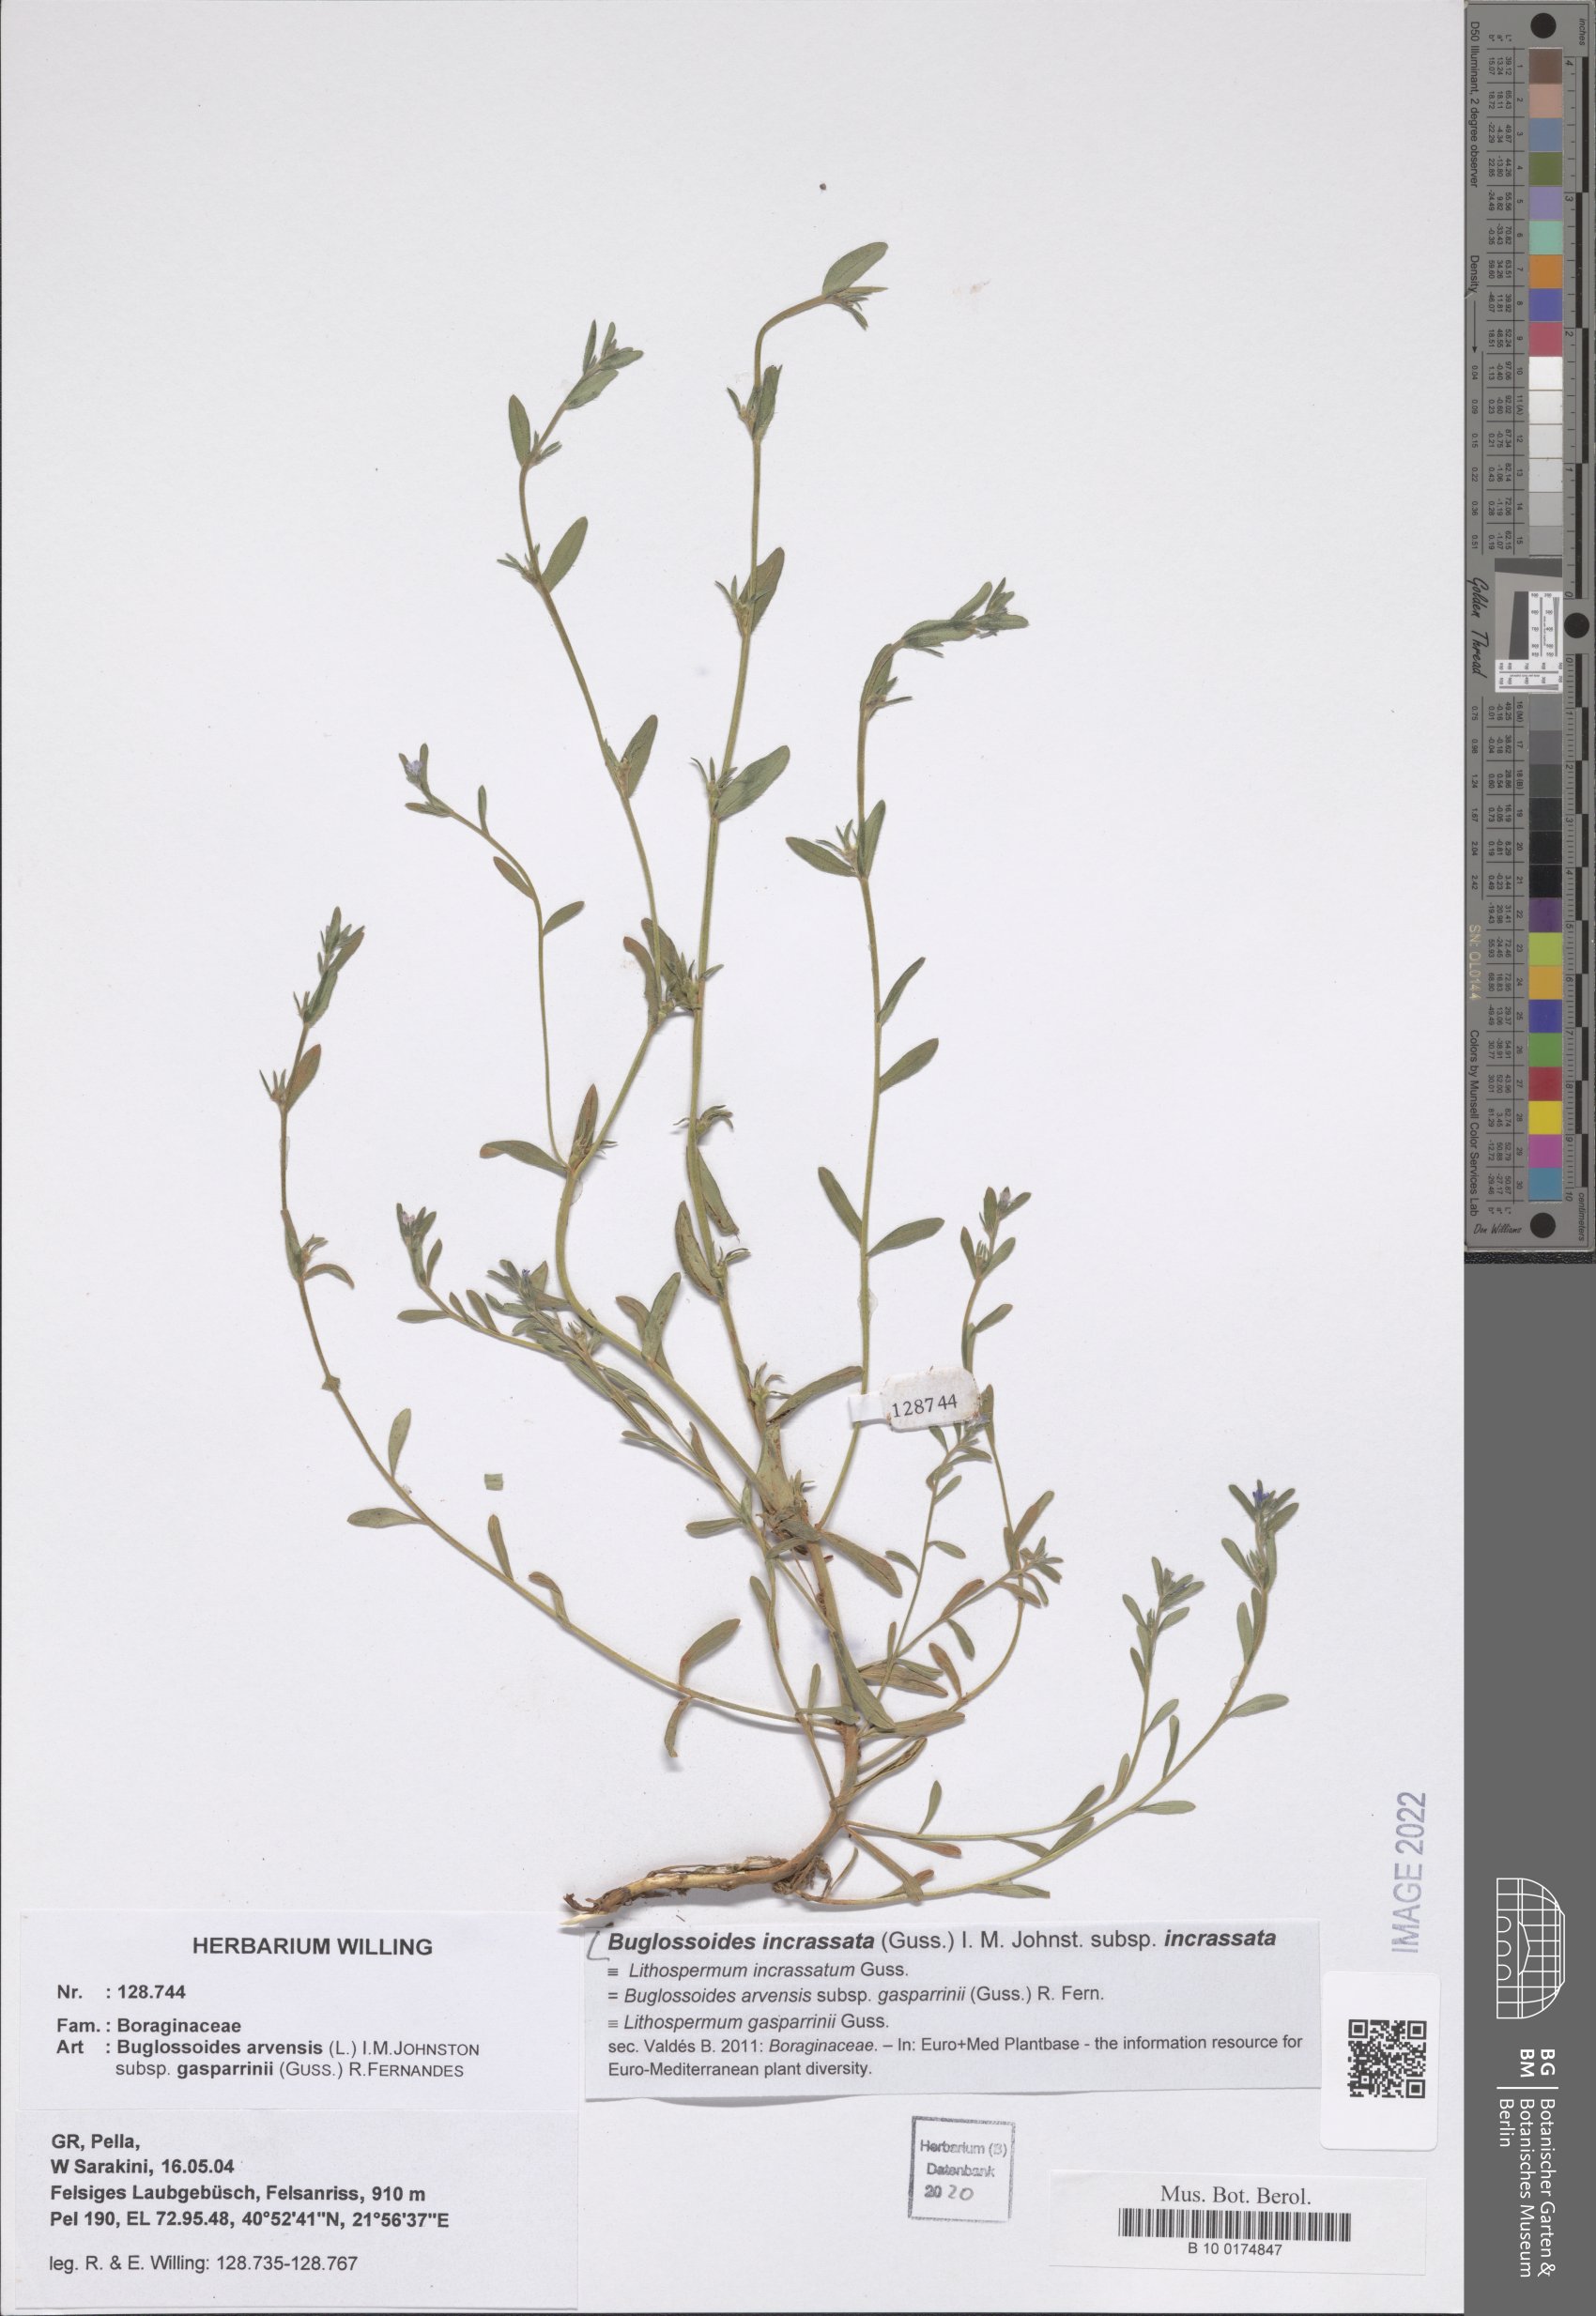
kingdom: Plantae
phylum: Tracheophyta
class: Magnoliopsida
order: Boraginales
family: Boraginaceae
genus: Buglossoides
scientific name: Buglossoides incrassata
